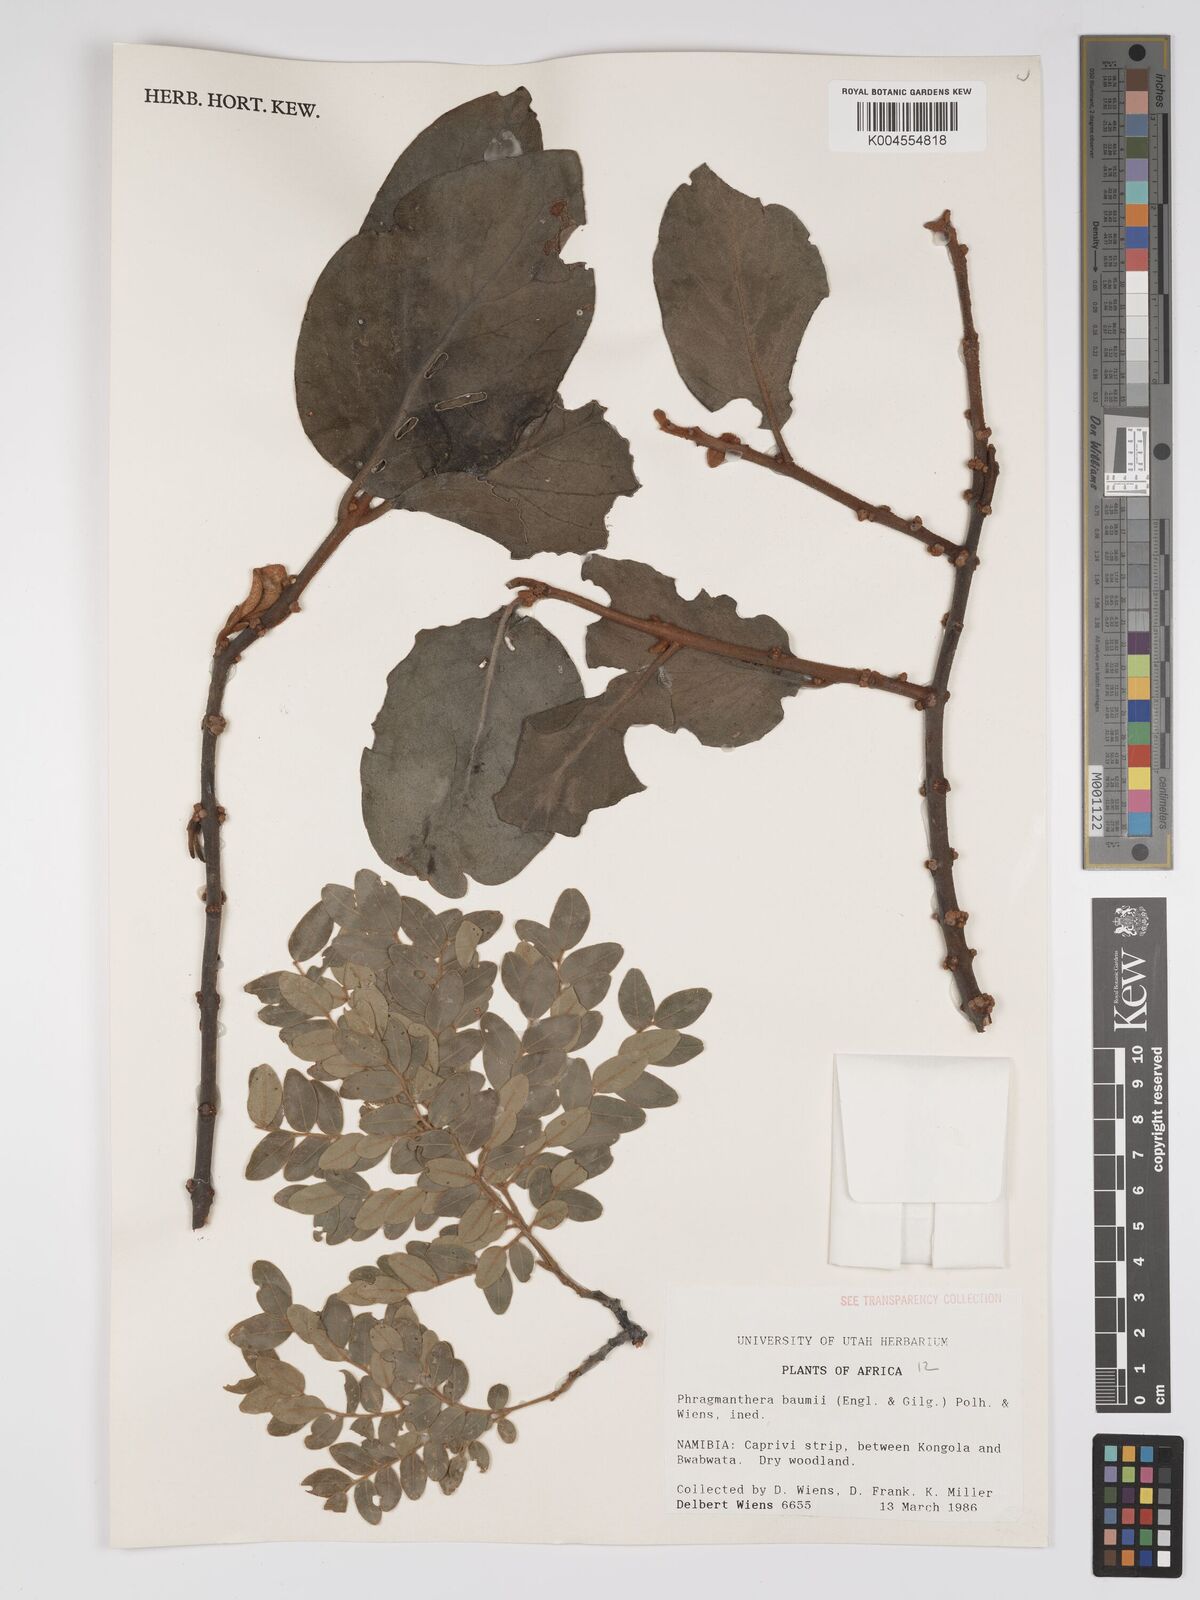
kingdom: Plantae
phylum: Tracheophyta
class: Magnoliopsida
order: Santalales
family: Loranthaceae
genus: Phragmanthera
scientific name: Phragmanthera baumii
